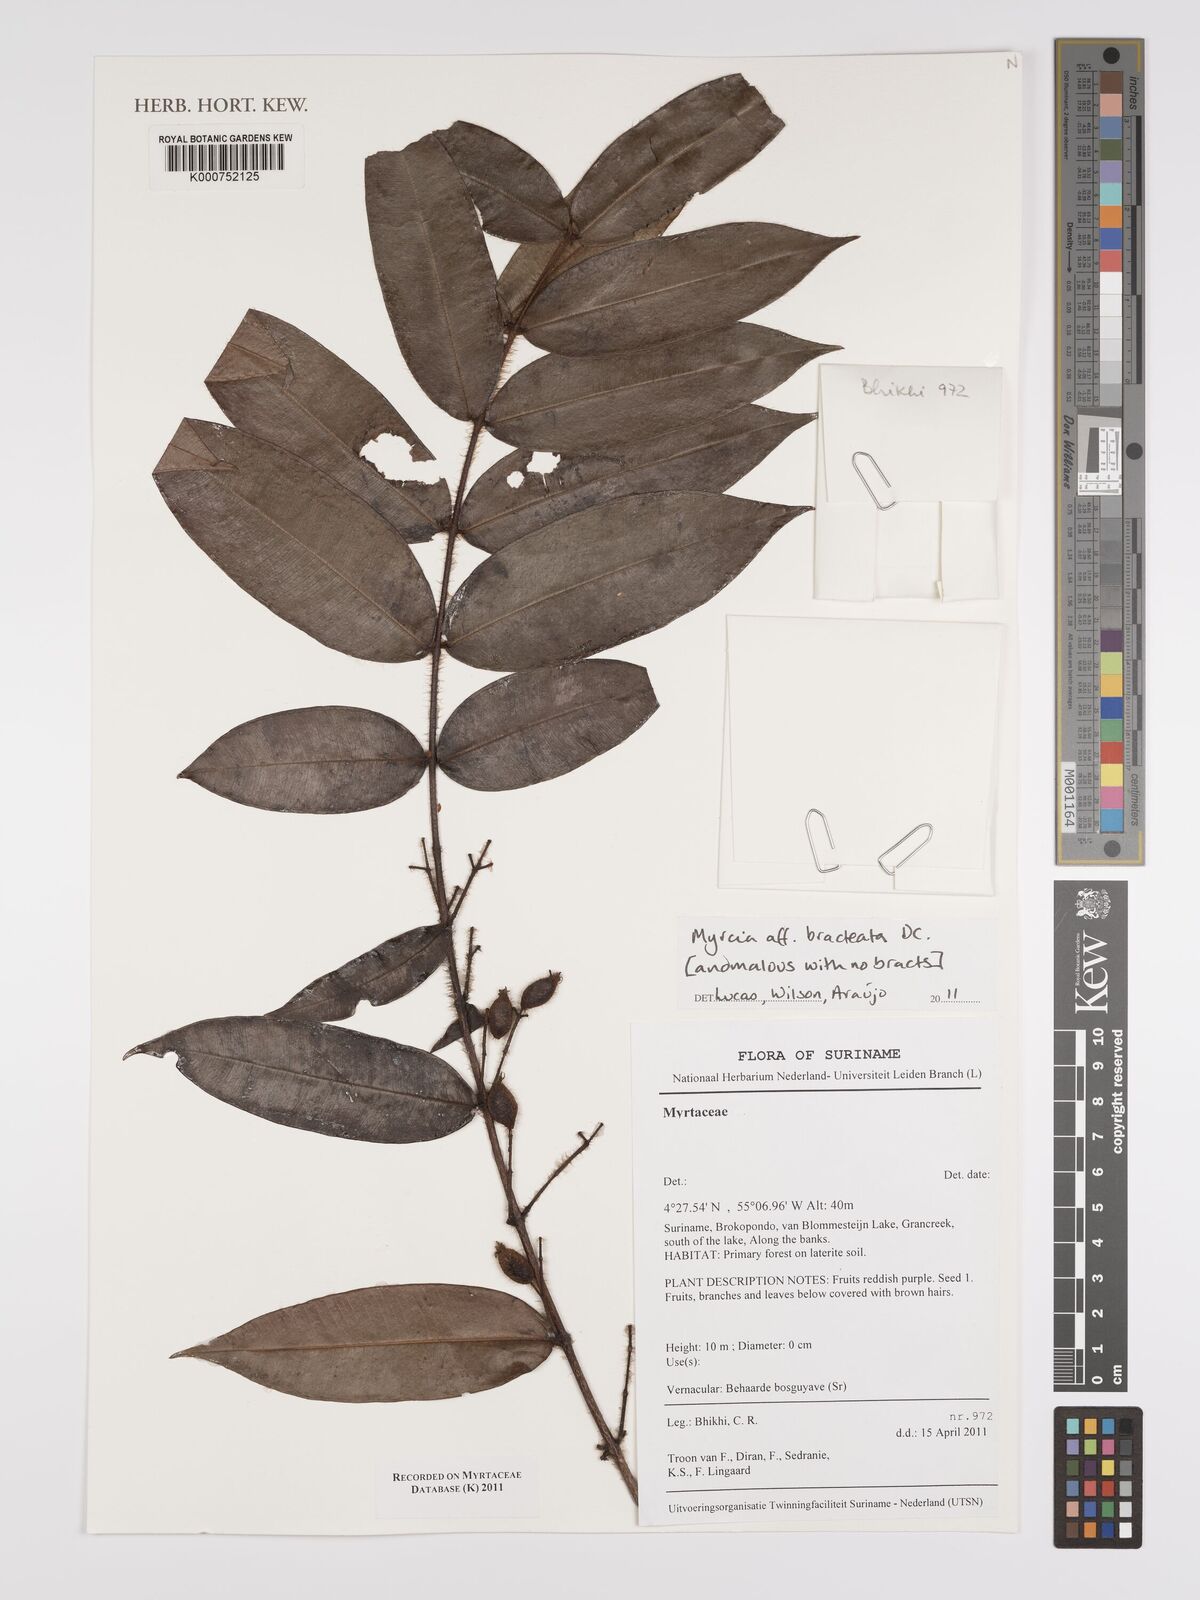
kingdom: Plantae
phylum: Tracheophyta
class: Magnoliopsida
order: Myrtales
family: Myrtaceae
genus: Myrcia
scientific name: Myrcia bracteata
